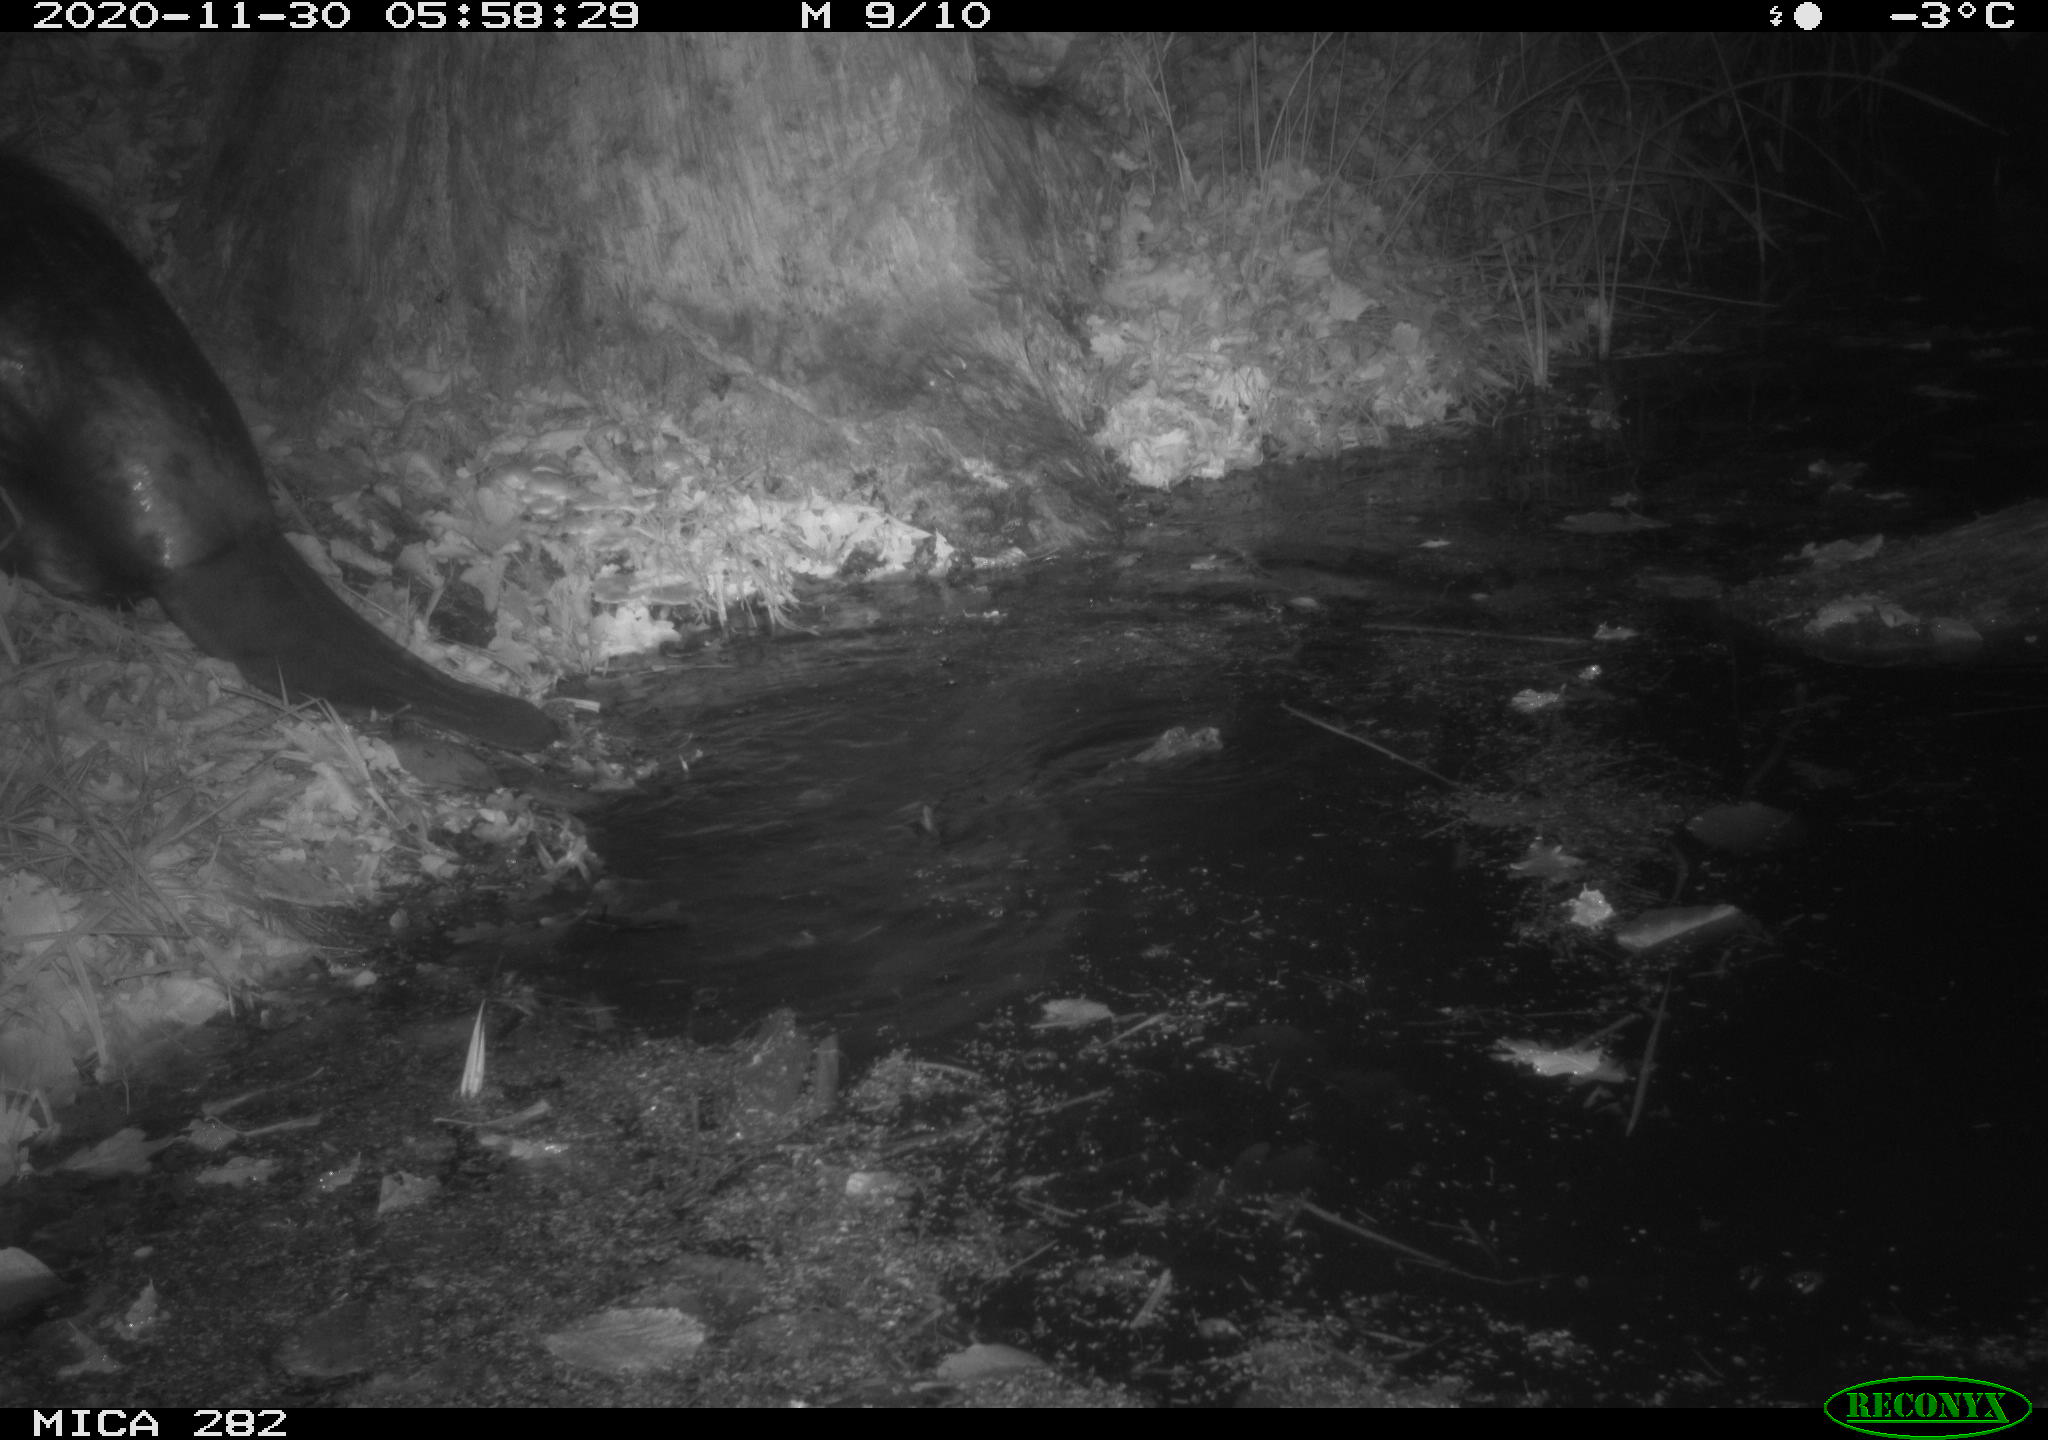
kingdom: Animalia
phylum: Chordata
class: Mammalia
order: Rodentia
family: Castoridae
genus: Castor
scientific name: Castor fiber
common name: Eurasian beaver
